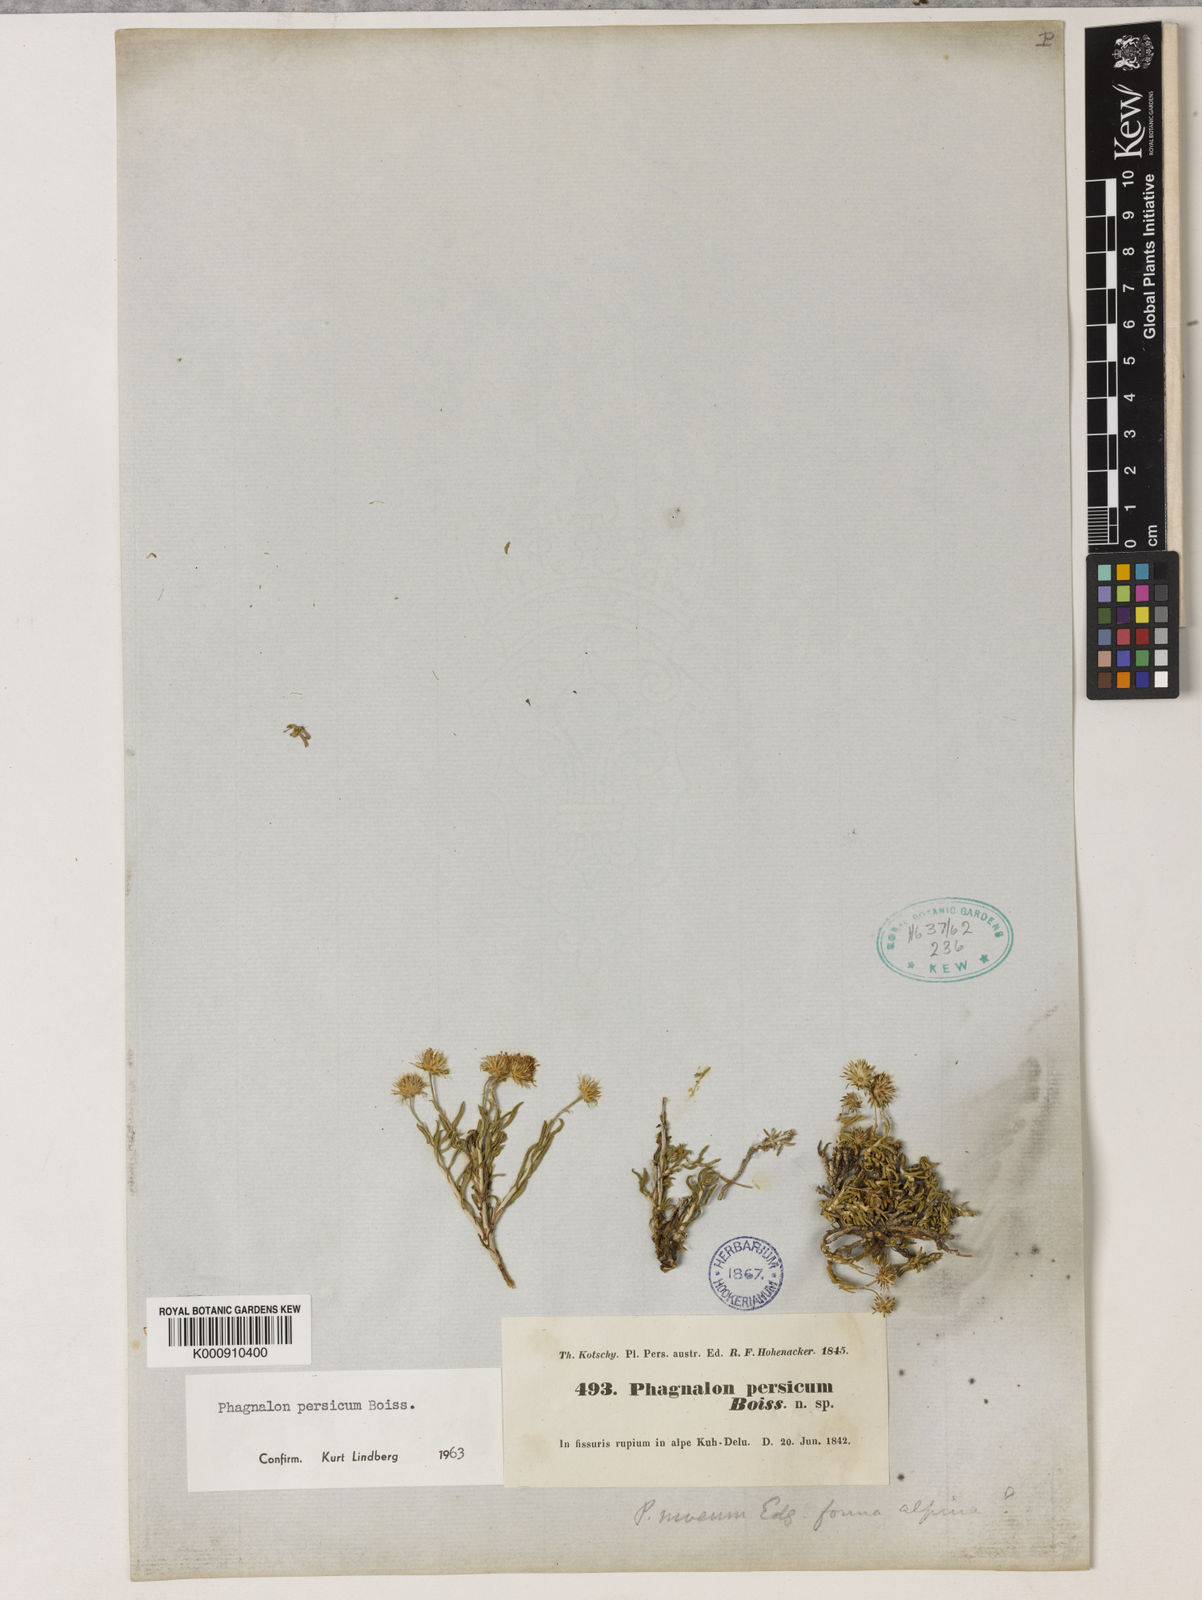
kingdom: Plantae
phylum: Tracheophyta
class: Magnoliopsida
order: Asterales
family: Asteraceae
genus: Phagnalon
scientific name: Phagnalon persicum
